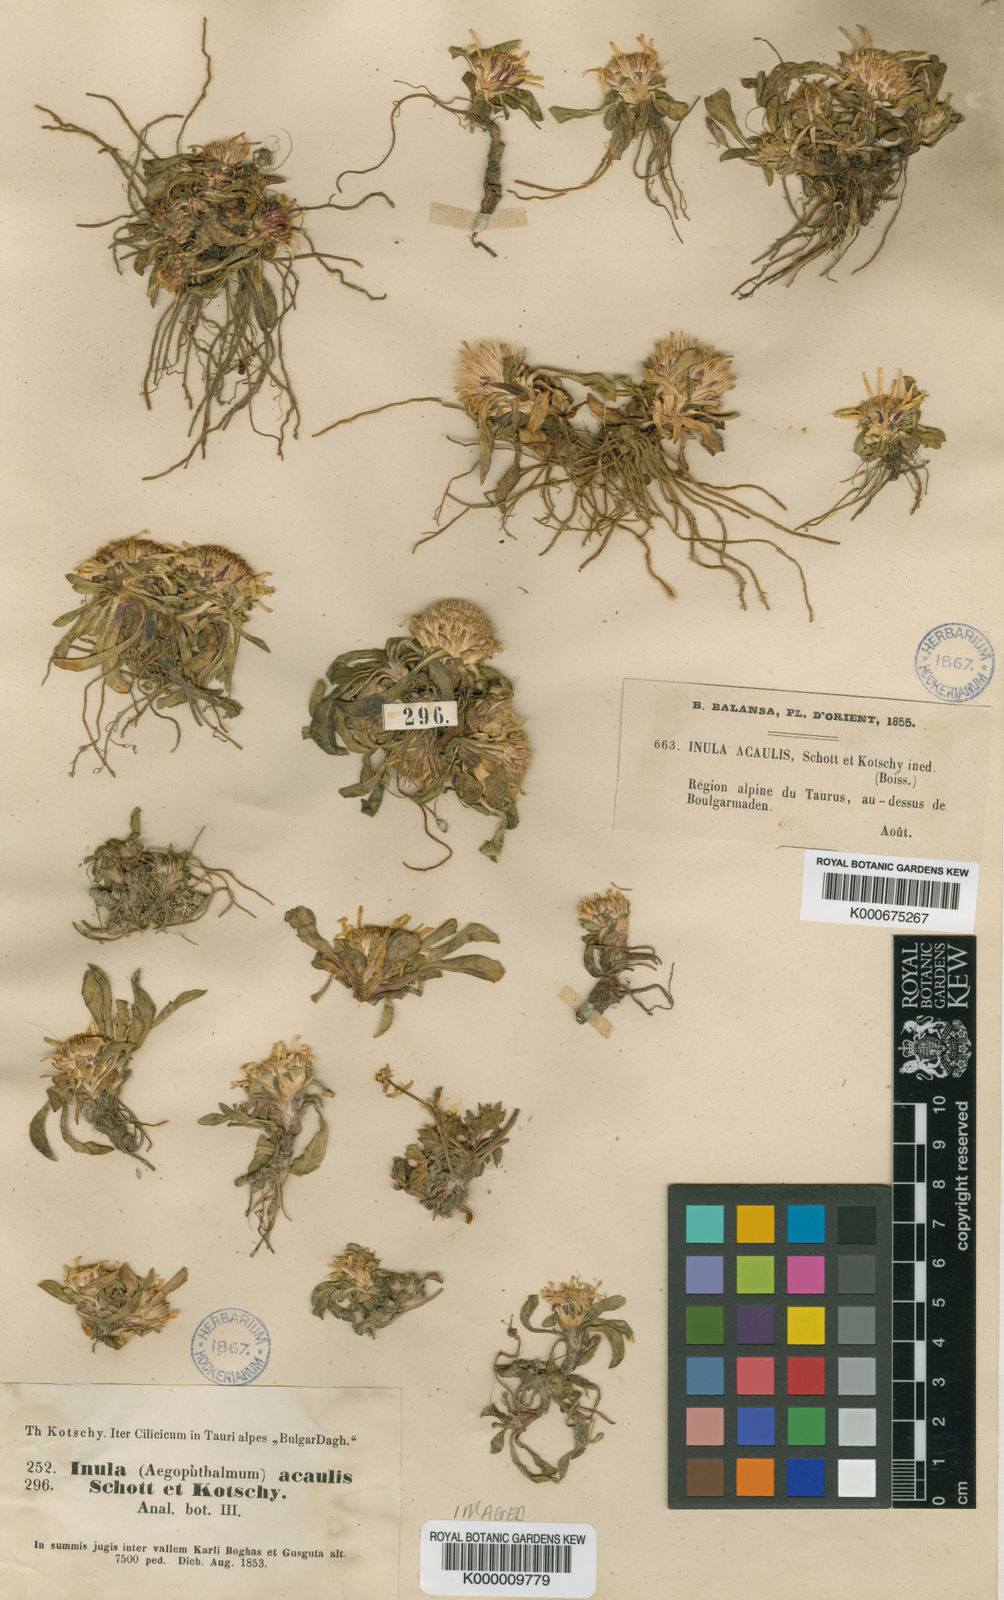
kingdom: Plantae
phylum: Tracheophyta
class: Magnoliopsida
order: Asterales
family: Asteraceae
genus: Inula
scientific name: Inula
